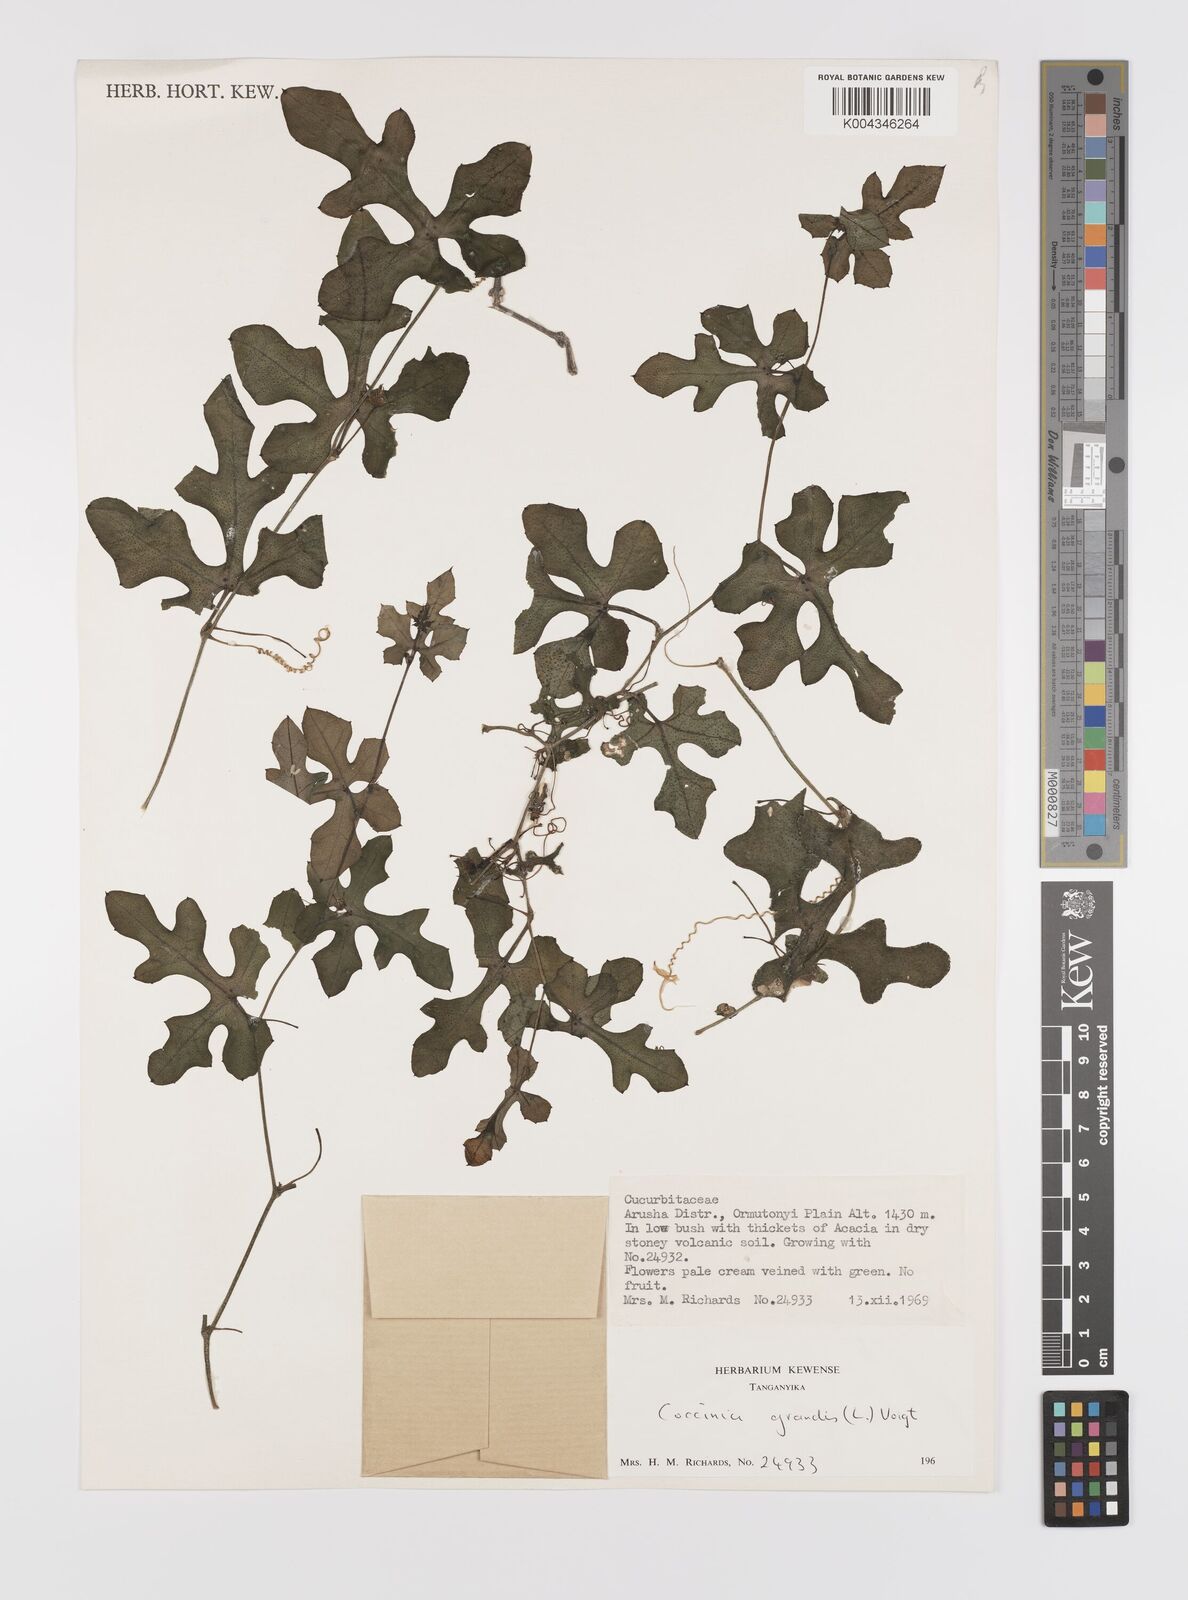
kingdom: Plantae
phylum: Tracheophyta
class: Magnoliopsida
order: Cucurbitales
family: Cucurbitaceae
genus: Coccinia
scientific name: Coccinia grandis
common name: Ivy gourd
